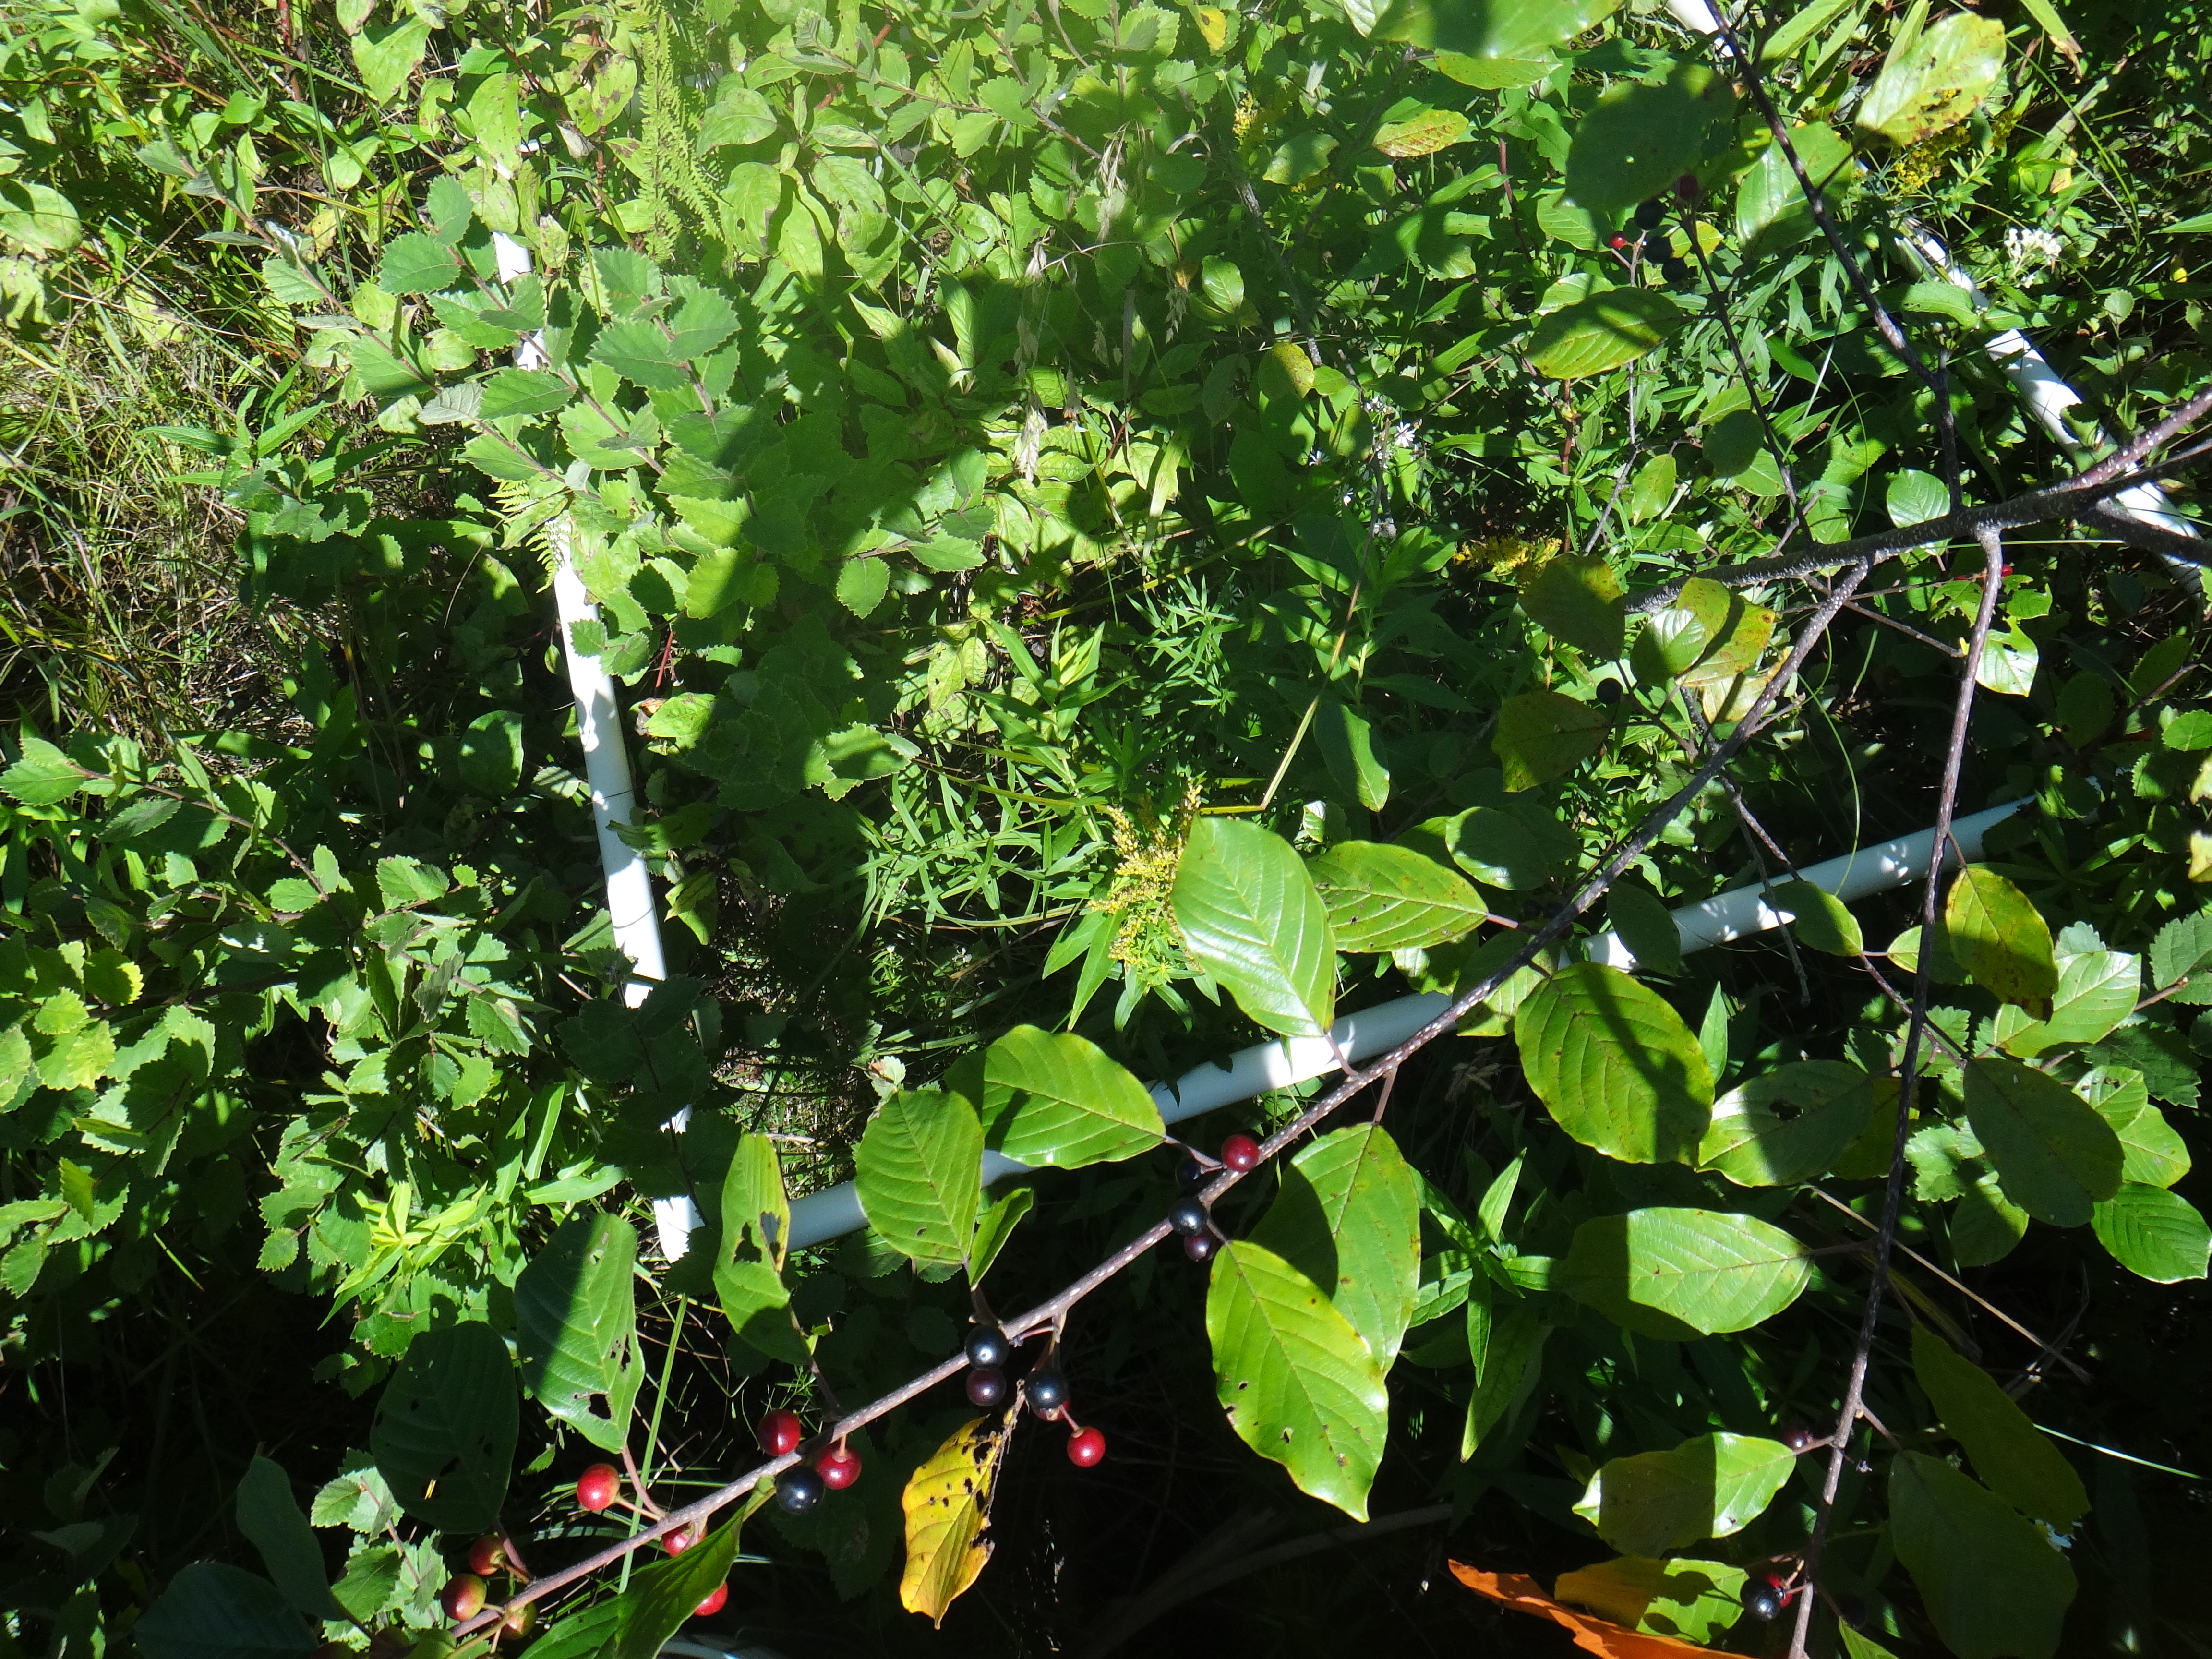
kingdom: Plantae
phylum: Tracheophyta
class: Liliopsida
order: Poales
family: Cyperaceae
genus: Carex
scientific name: Carex leptalea
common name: Bristly-stalked sedge
